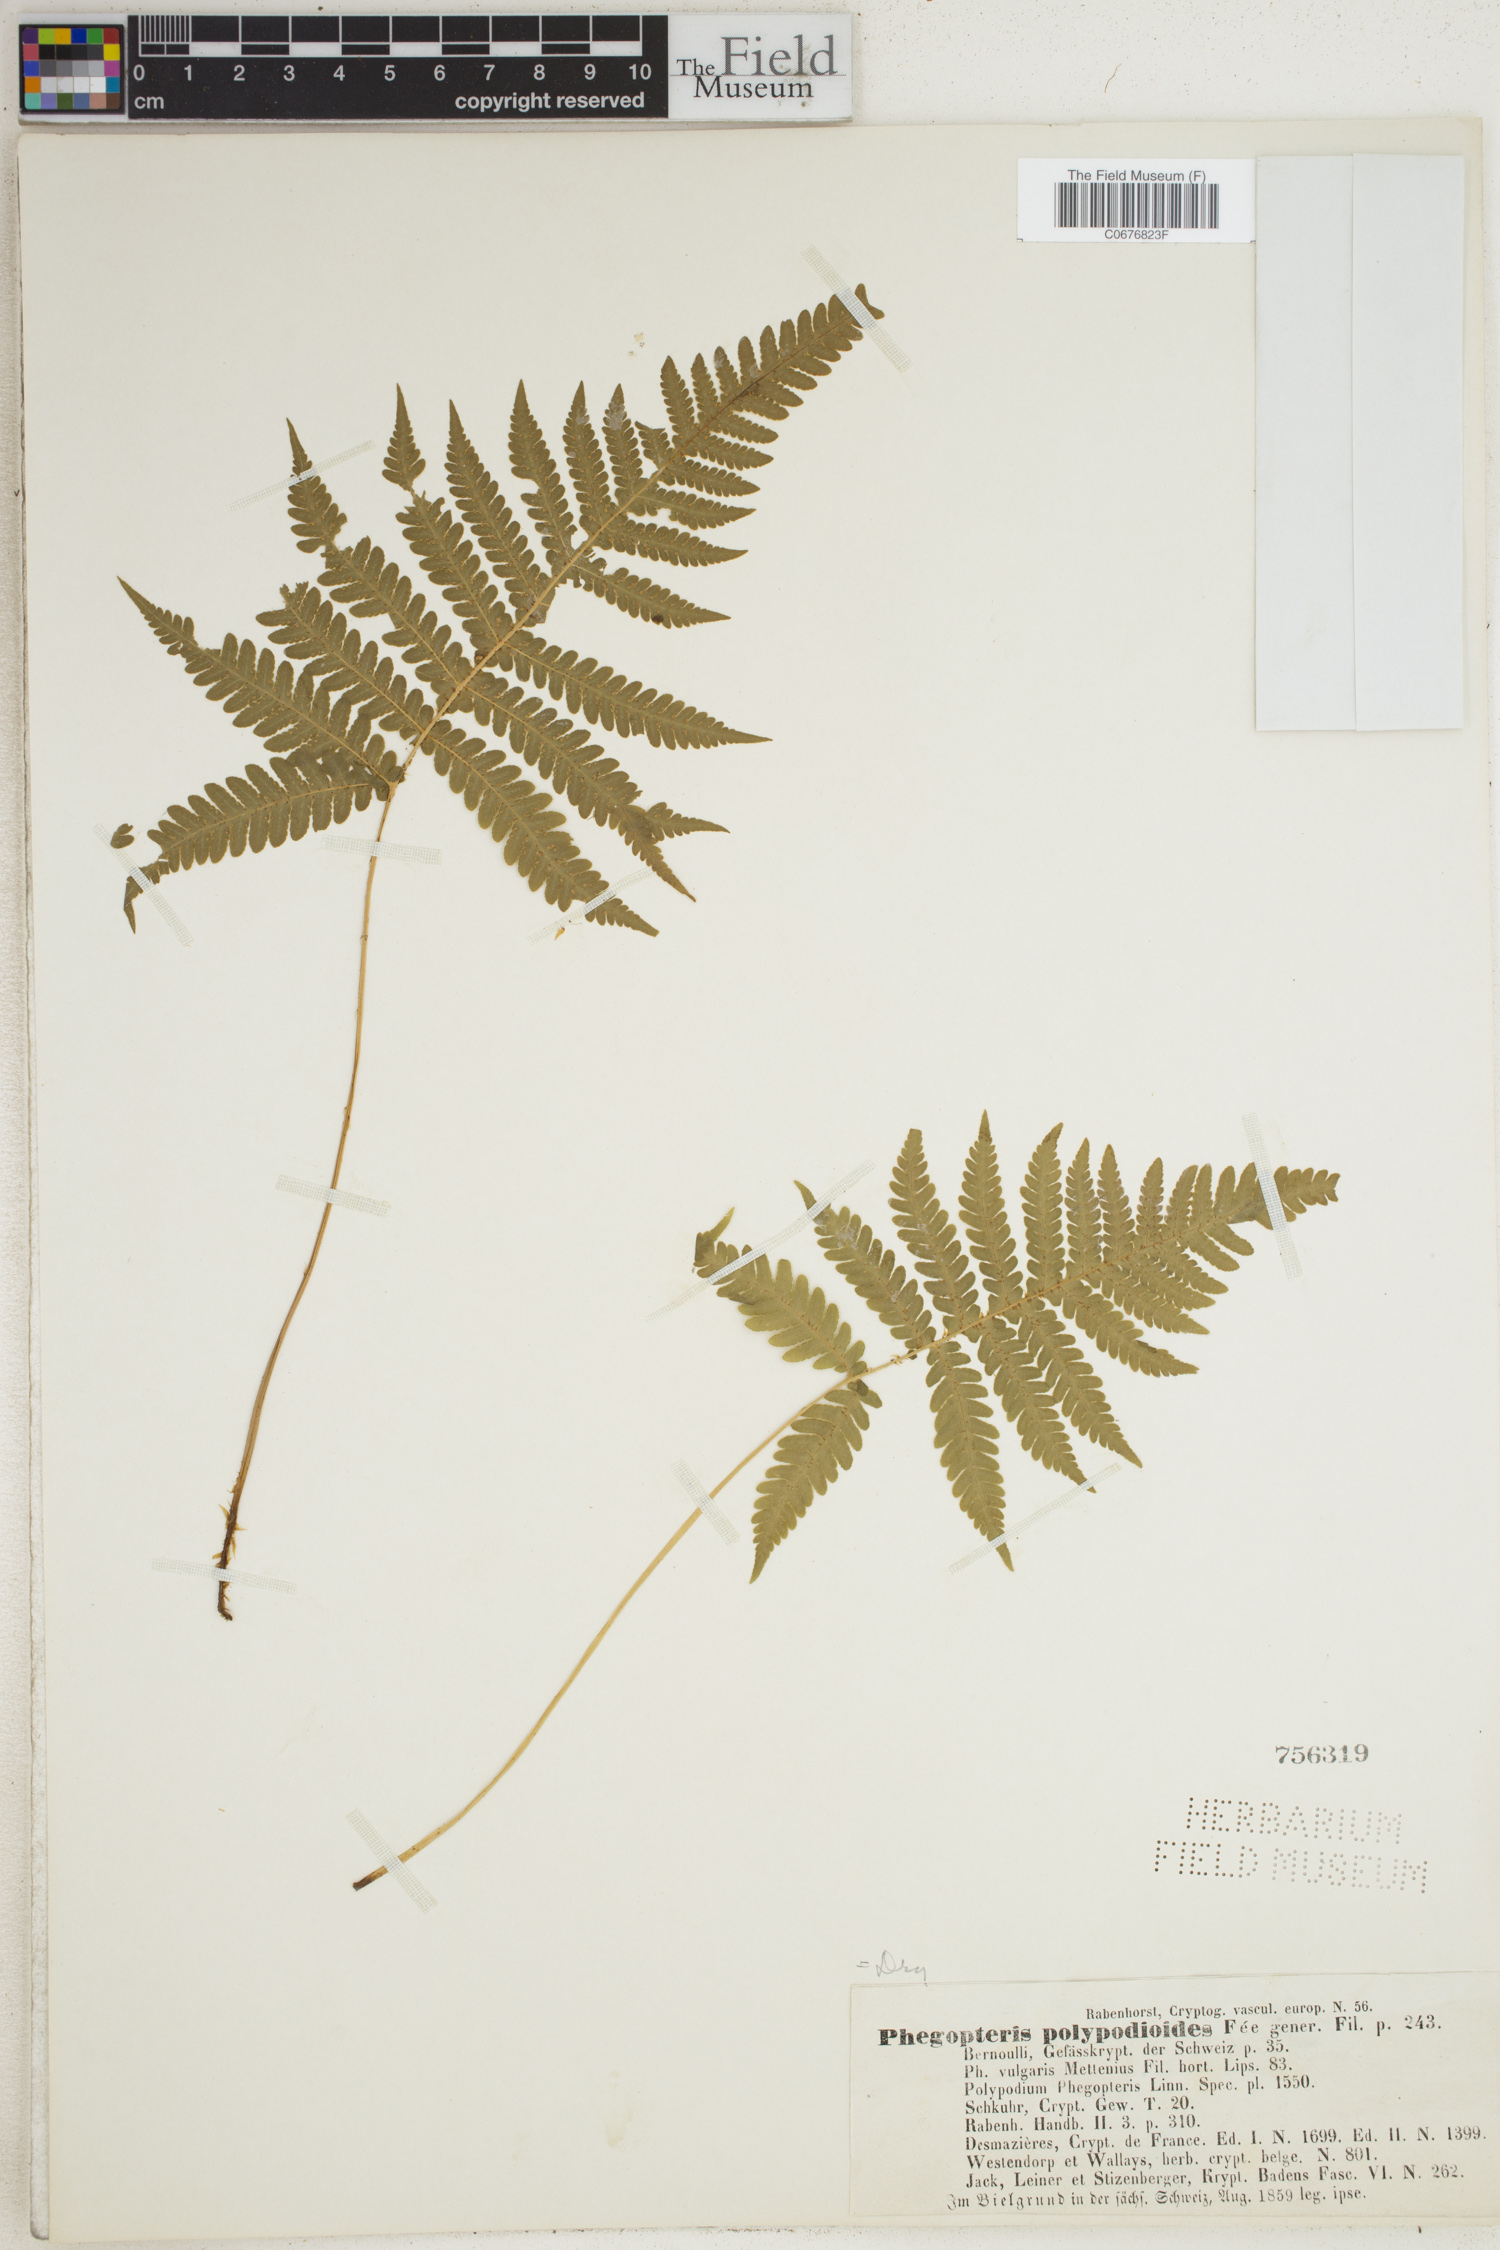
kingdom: Plantae
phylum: Tracheophyta
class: Polypodiopsida
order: Polypodiales
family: Thelypteridaceae
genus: Phegopteris
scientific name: Phegopteris connectilis
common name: Beech fern
